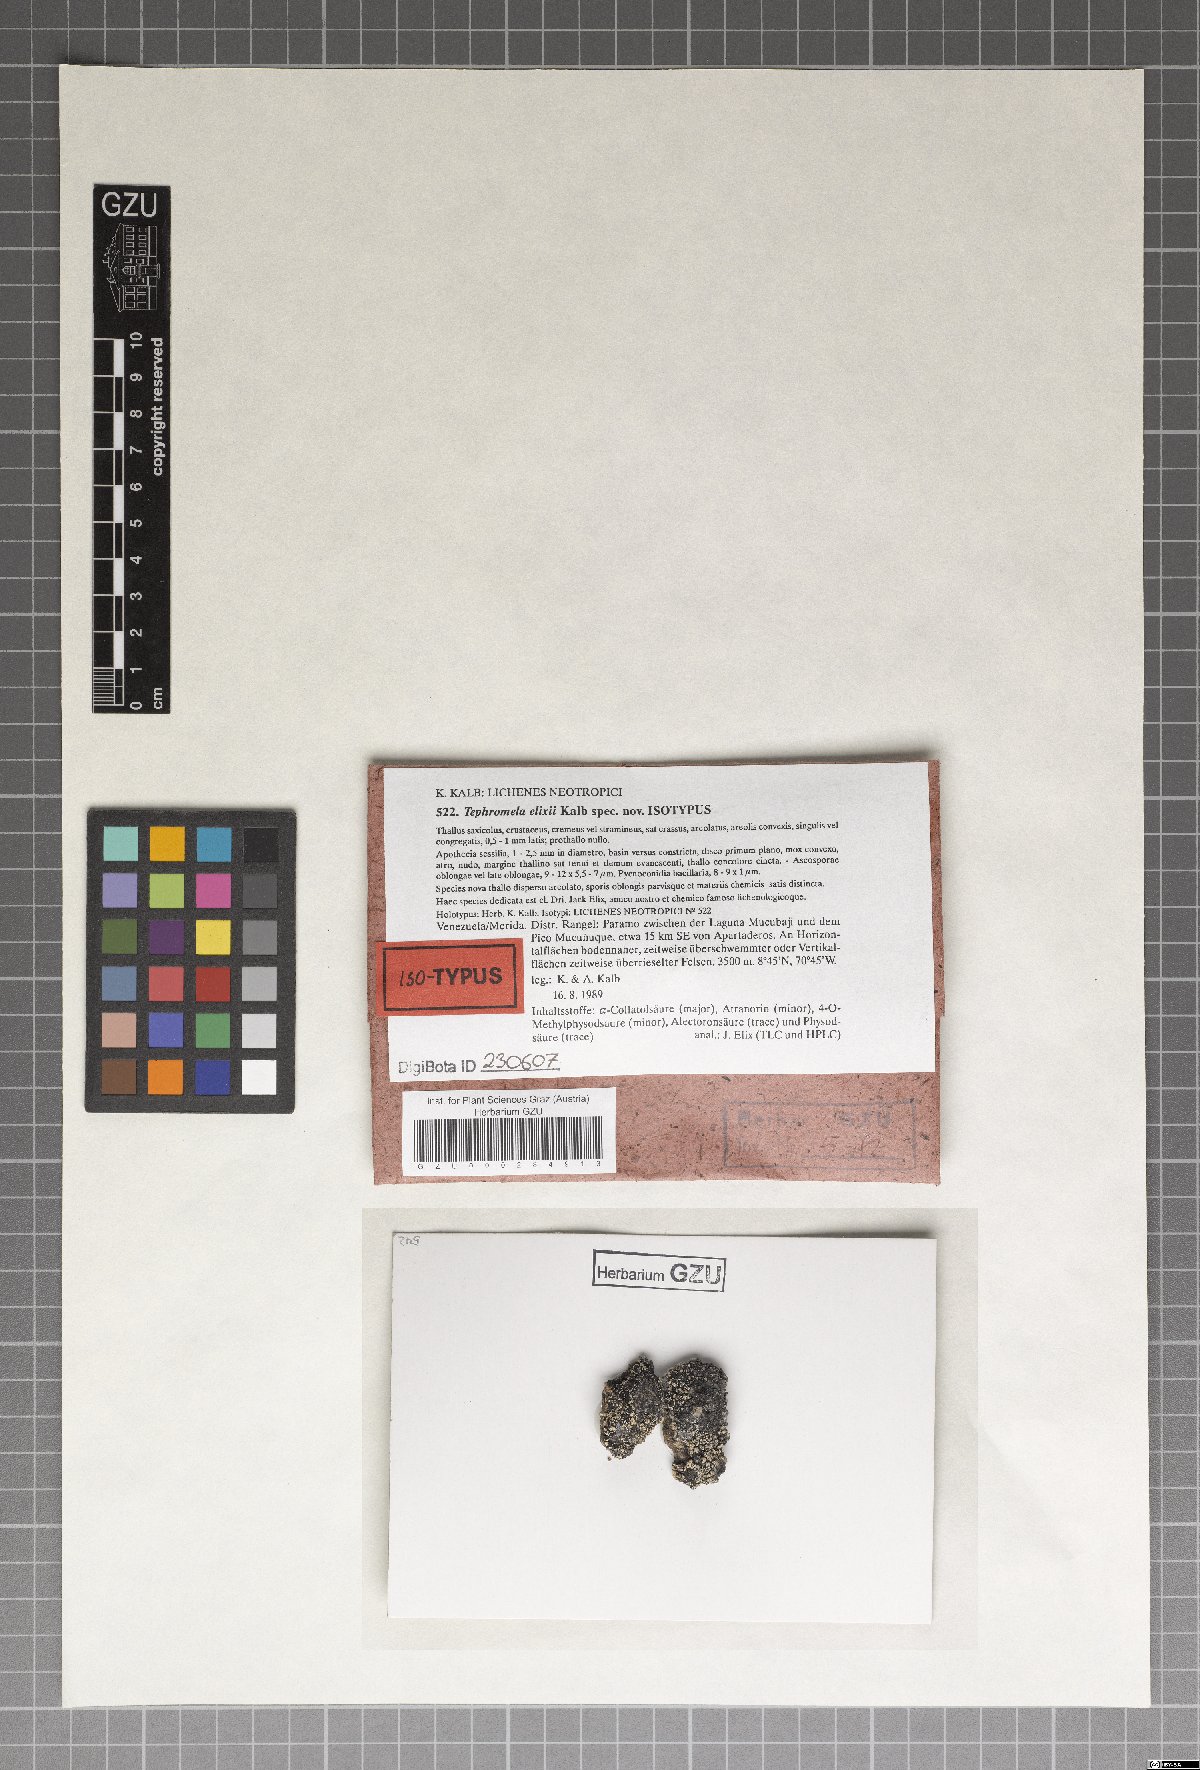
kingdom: Fungi
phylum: Ascomycota
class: Lecanoromycetes
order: Lecanorales
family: Tephromelataceae
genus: Tephromela
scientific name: Tephromela elixii
